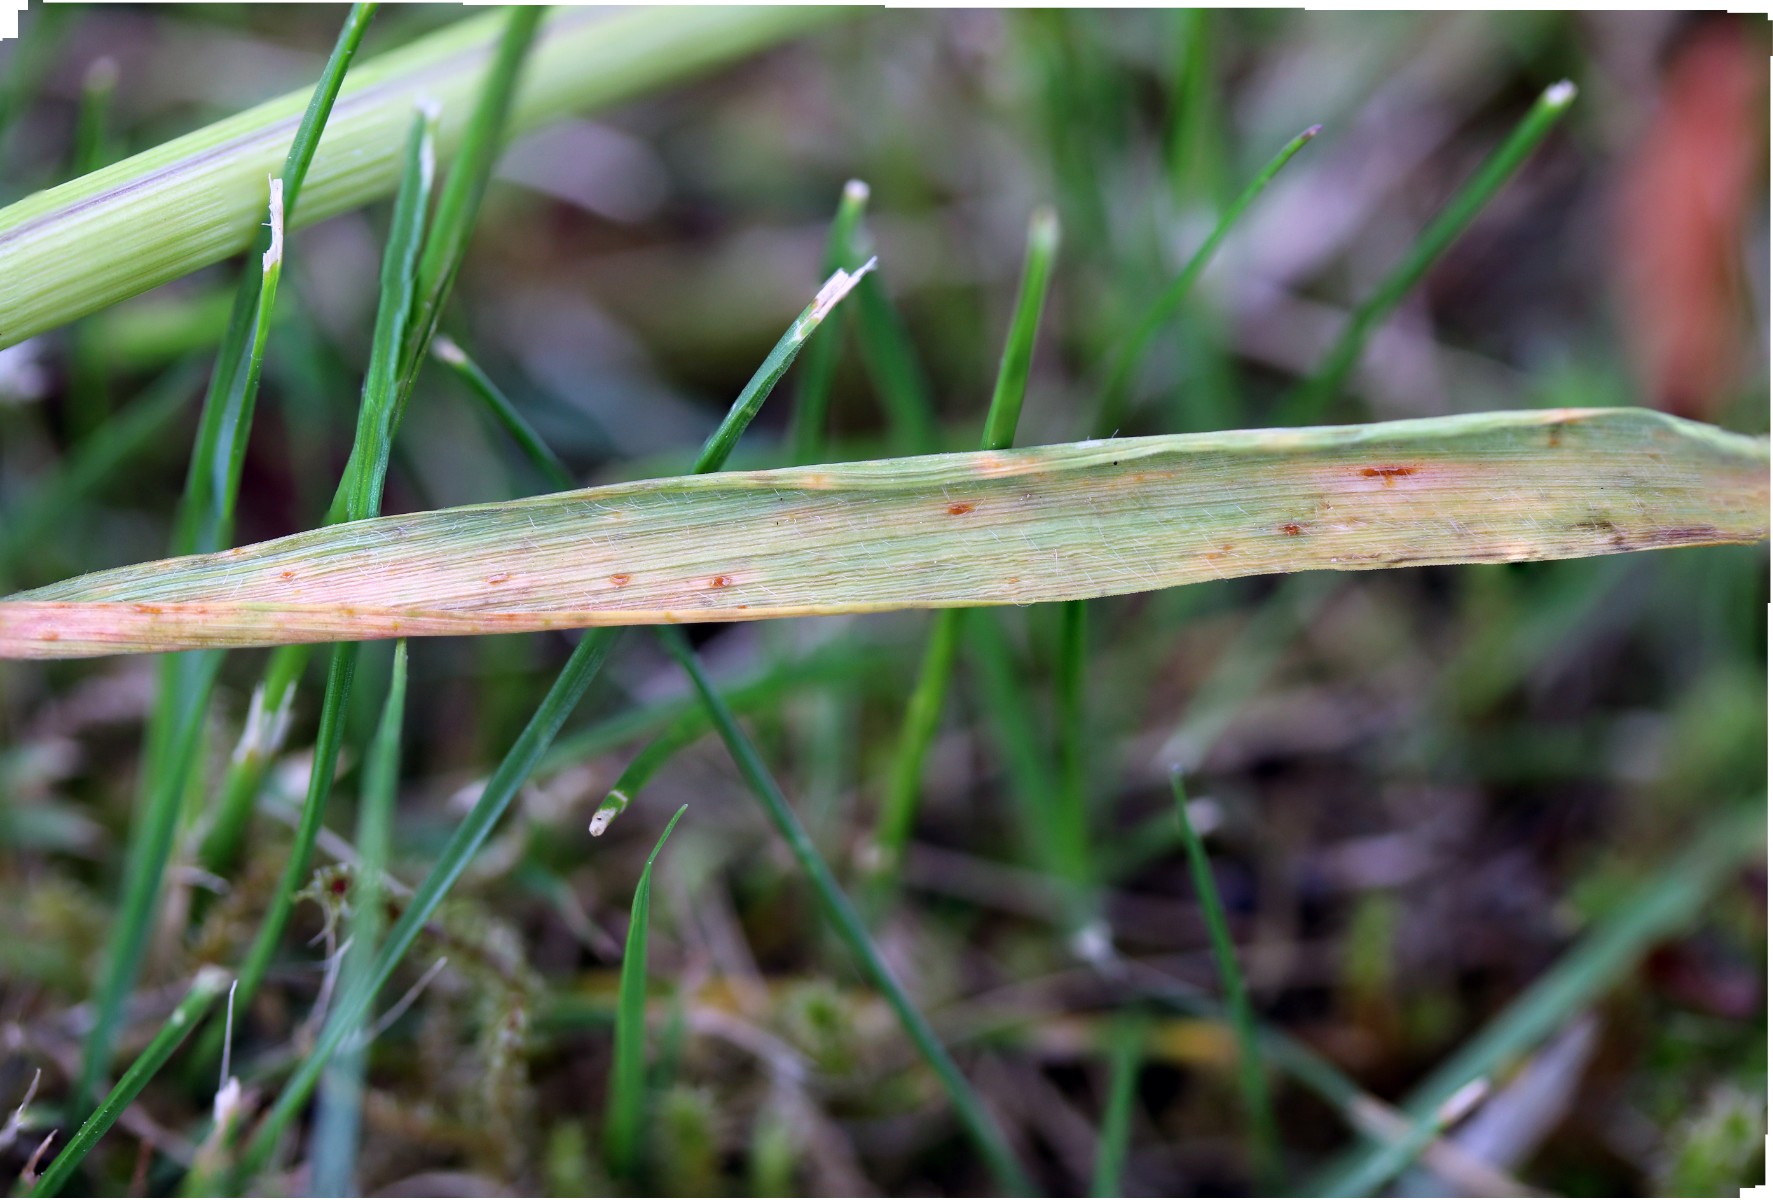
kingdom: Fungi
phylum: Basidiomycota
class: Pucciniomycetes
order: Pucciniales
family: Pucciniaceae
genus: Puccinia
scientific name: Puccinia coronata
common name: Crown rust
